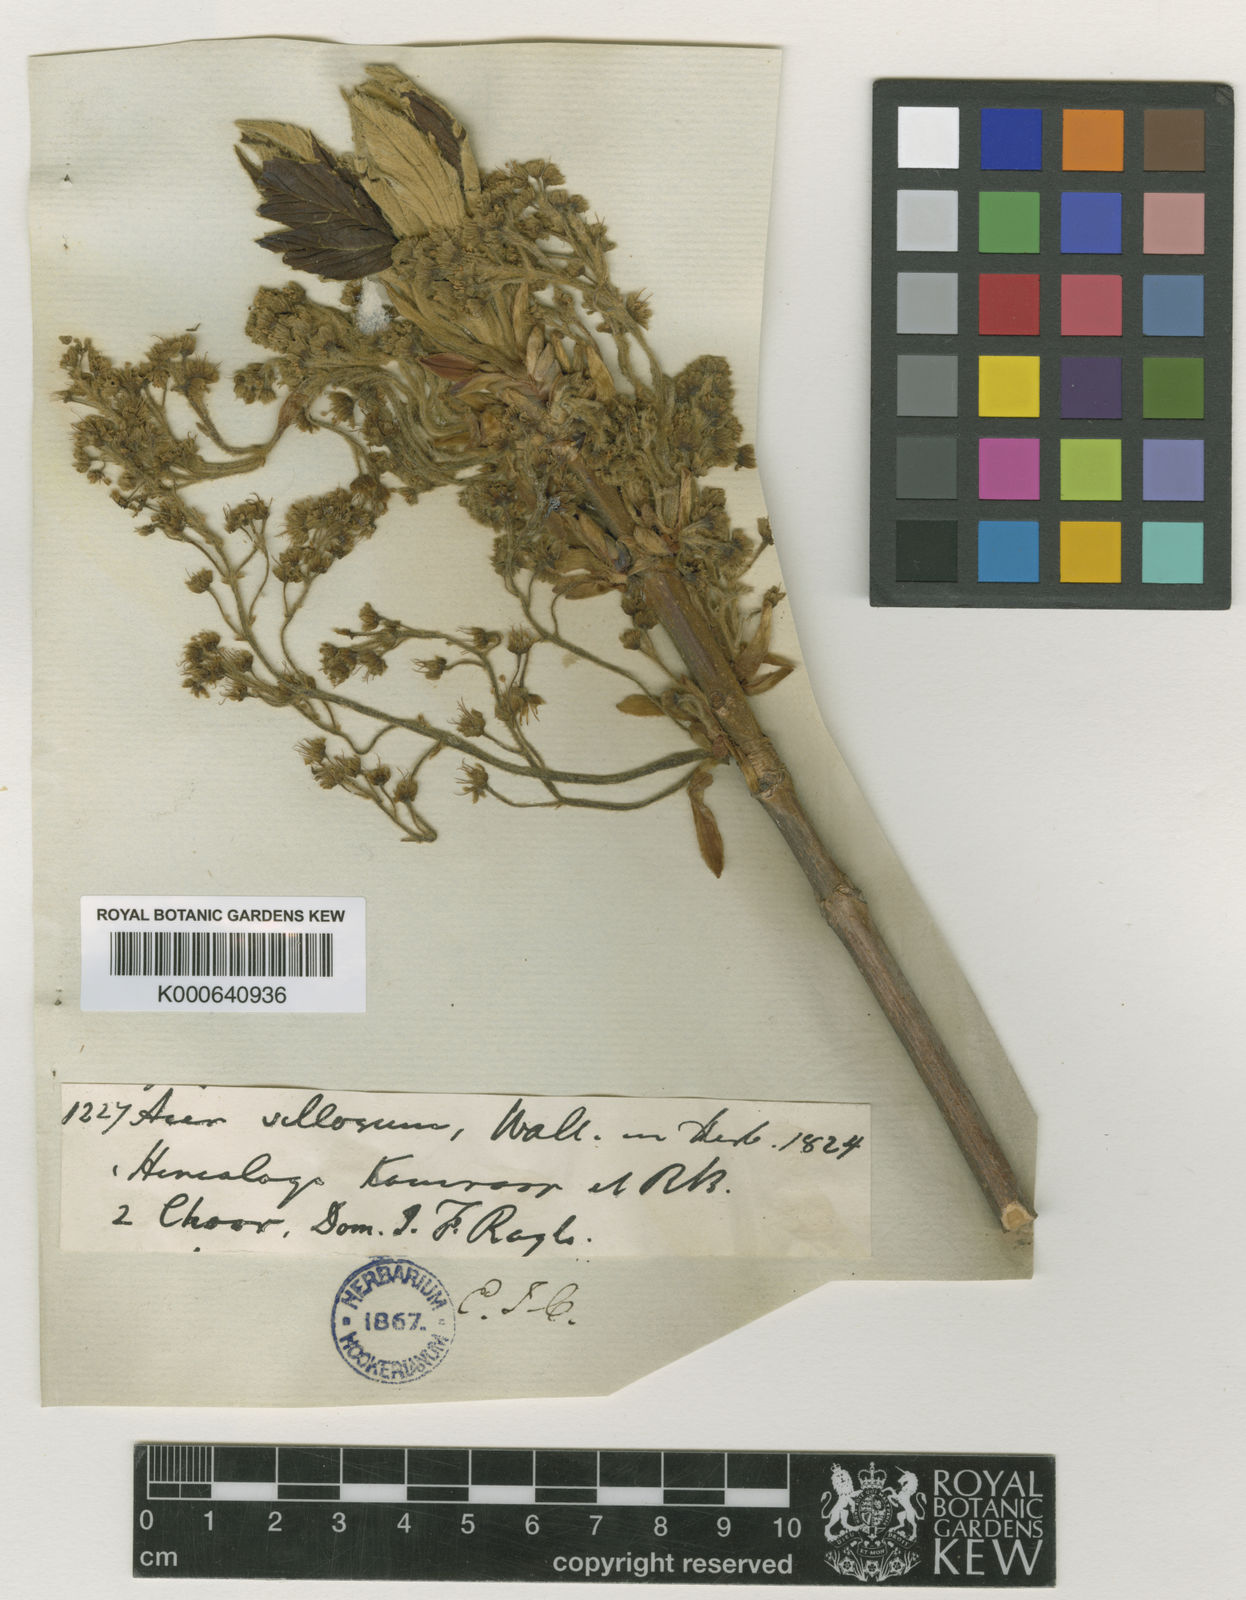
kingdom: Plantae
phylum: Tracheophyta
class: Magnoliopsida
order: Sapindales
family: Sapindaceae
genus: Acer
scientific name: Acer sterculiaceum
